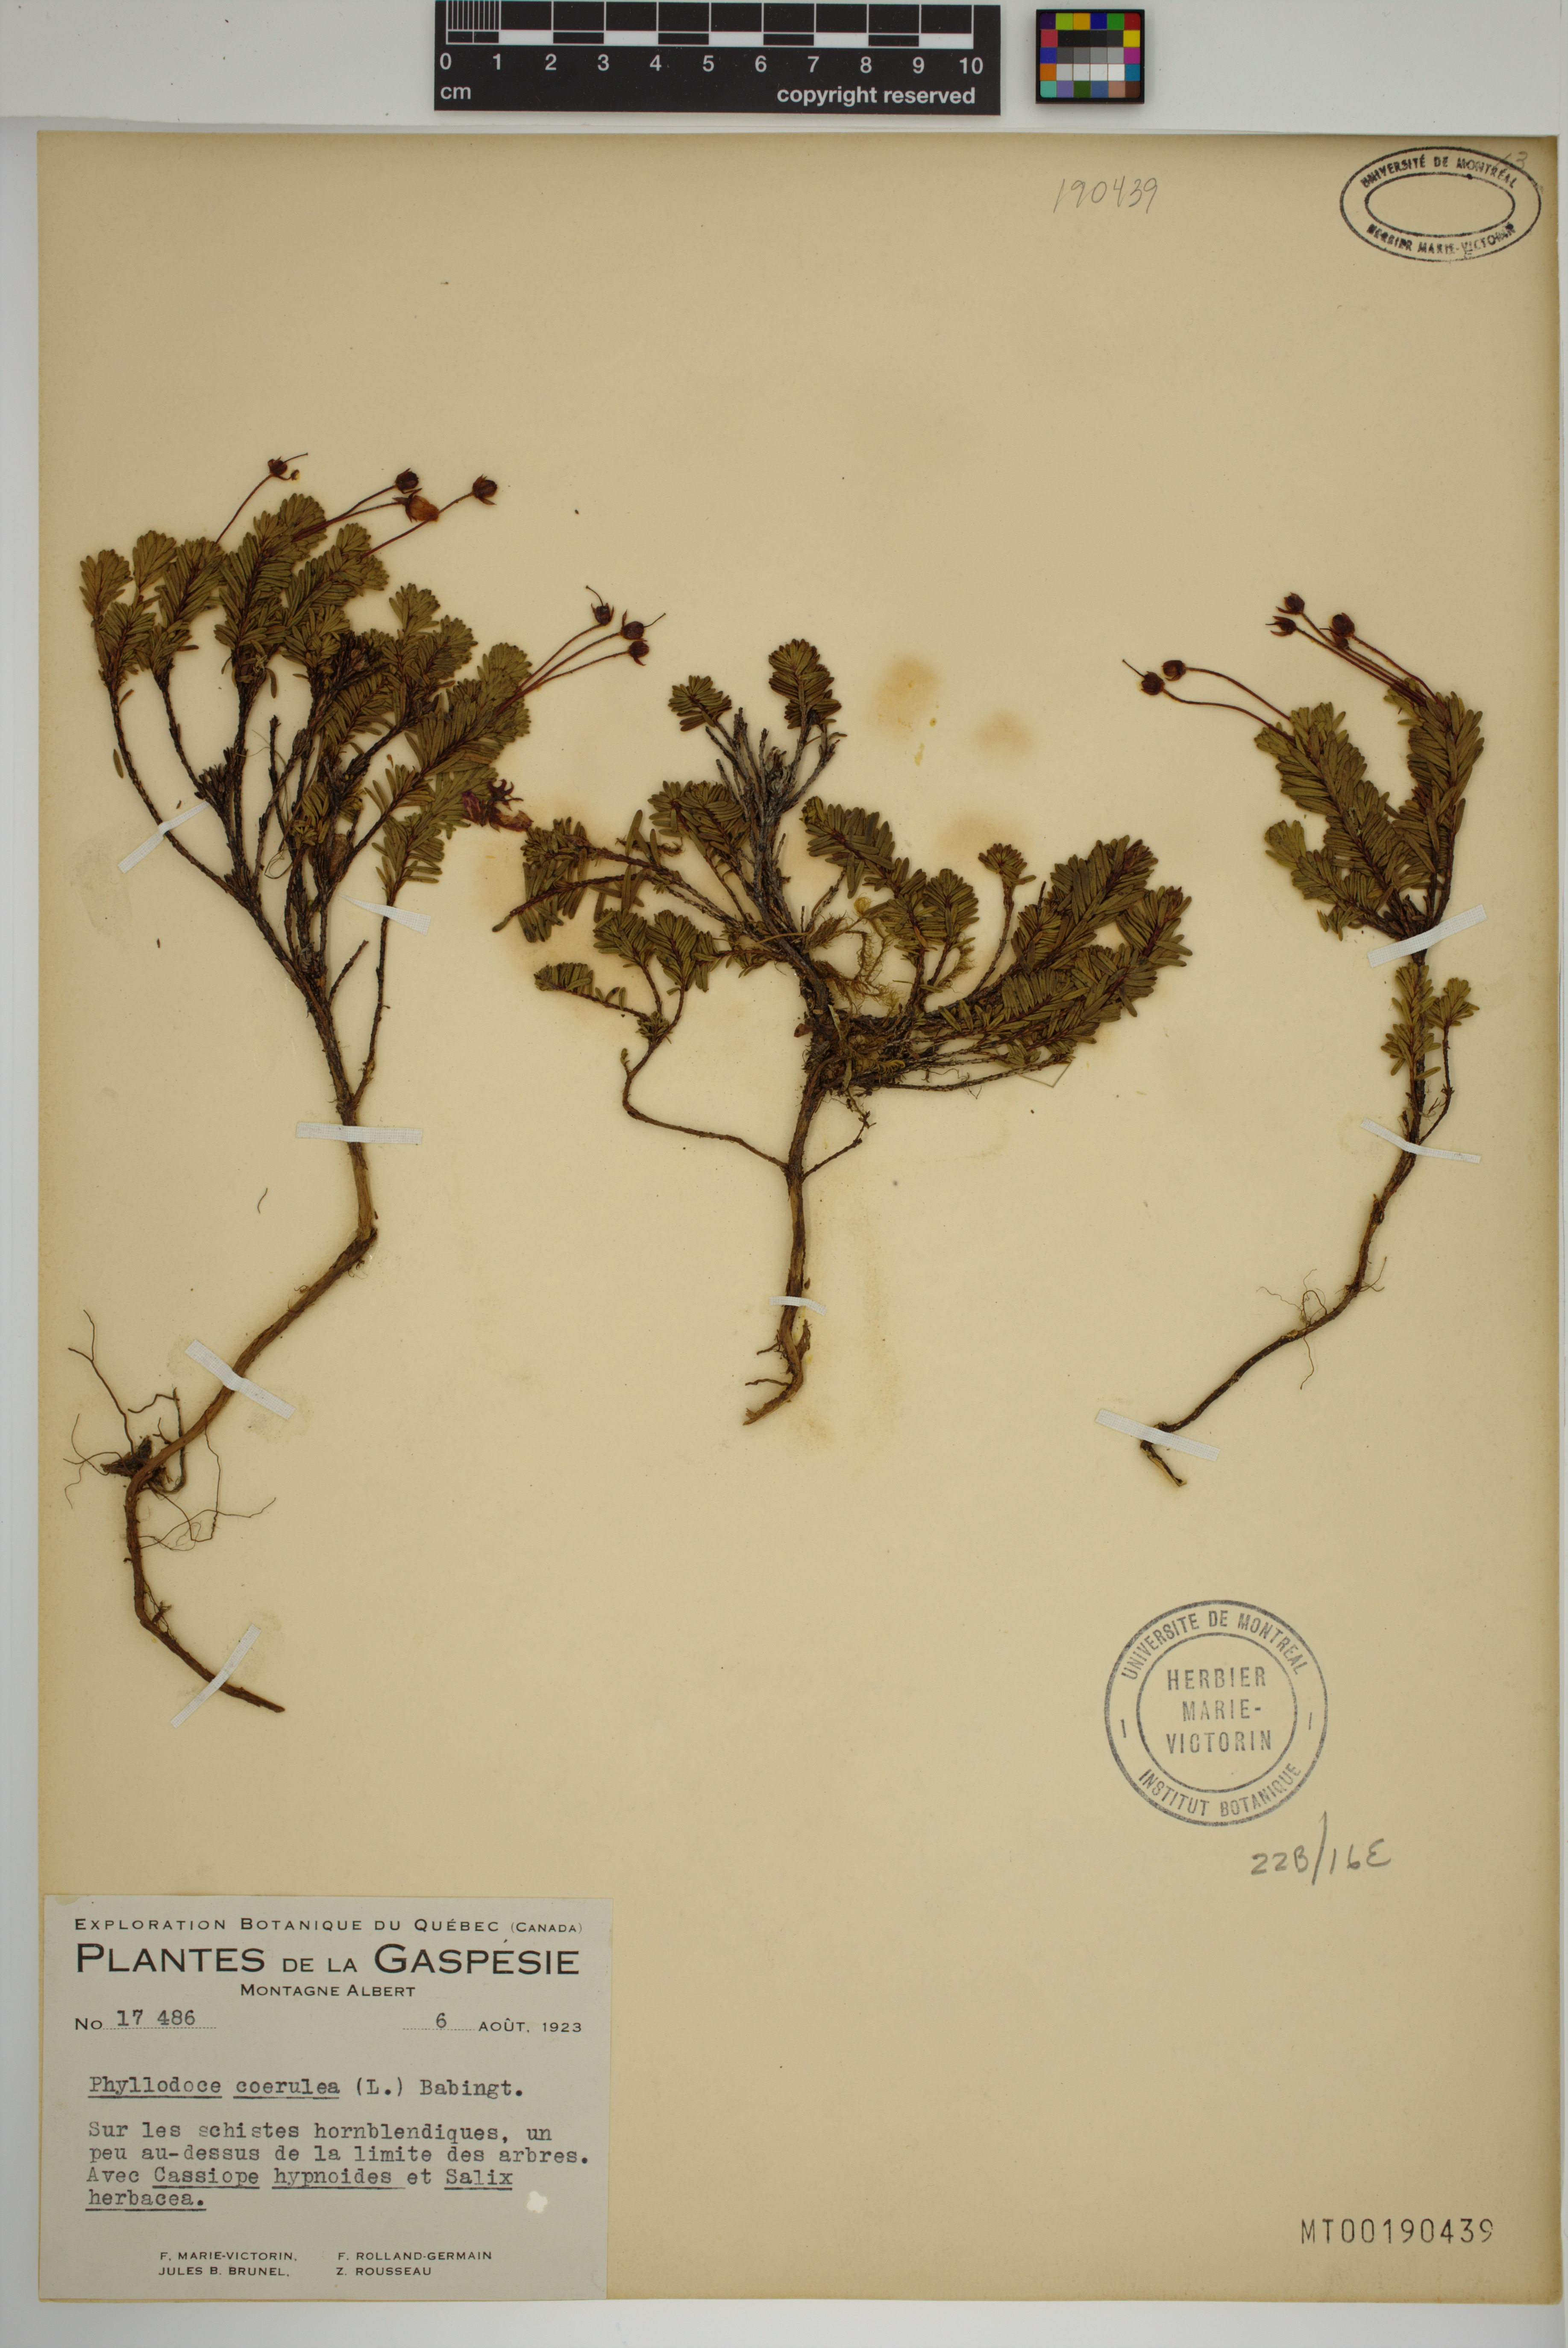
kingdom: Plantae
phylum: Tracheophyta
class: Magnoliopsida
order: Ericales
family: Ericaceae
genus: Phyllodoce
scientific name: Phyllodoce caerulea
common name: Blue heath
